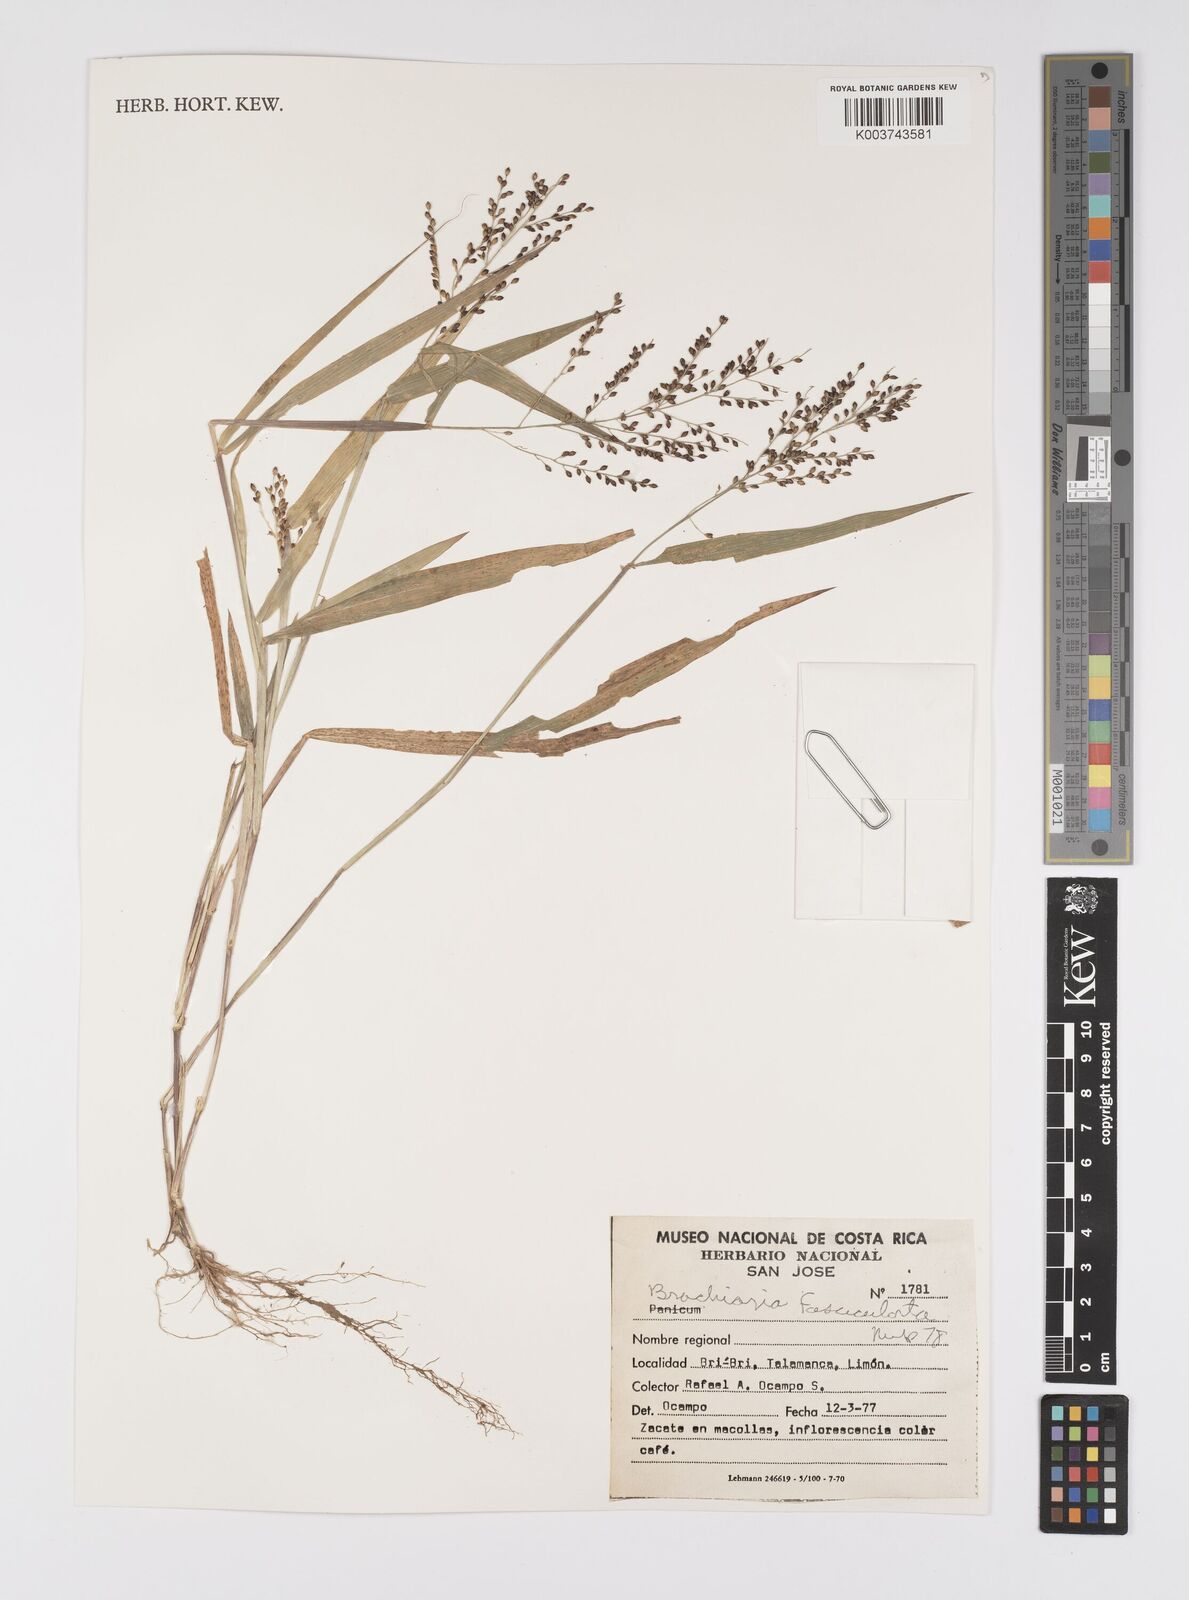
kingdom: Plantae
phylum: Tracheophyta
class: Liliopsida
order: Poales
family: Poaceae
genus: Urochloa
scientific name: Urochloa fusca
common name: Browntop signal grass
